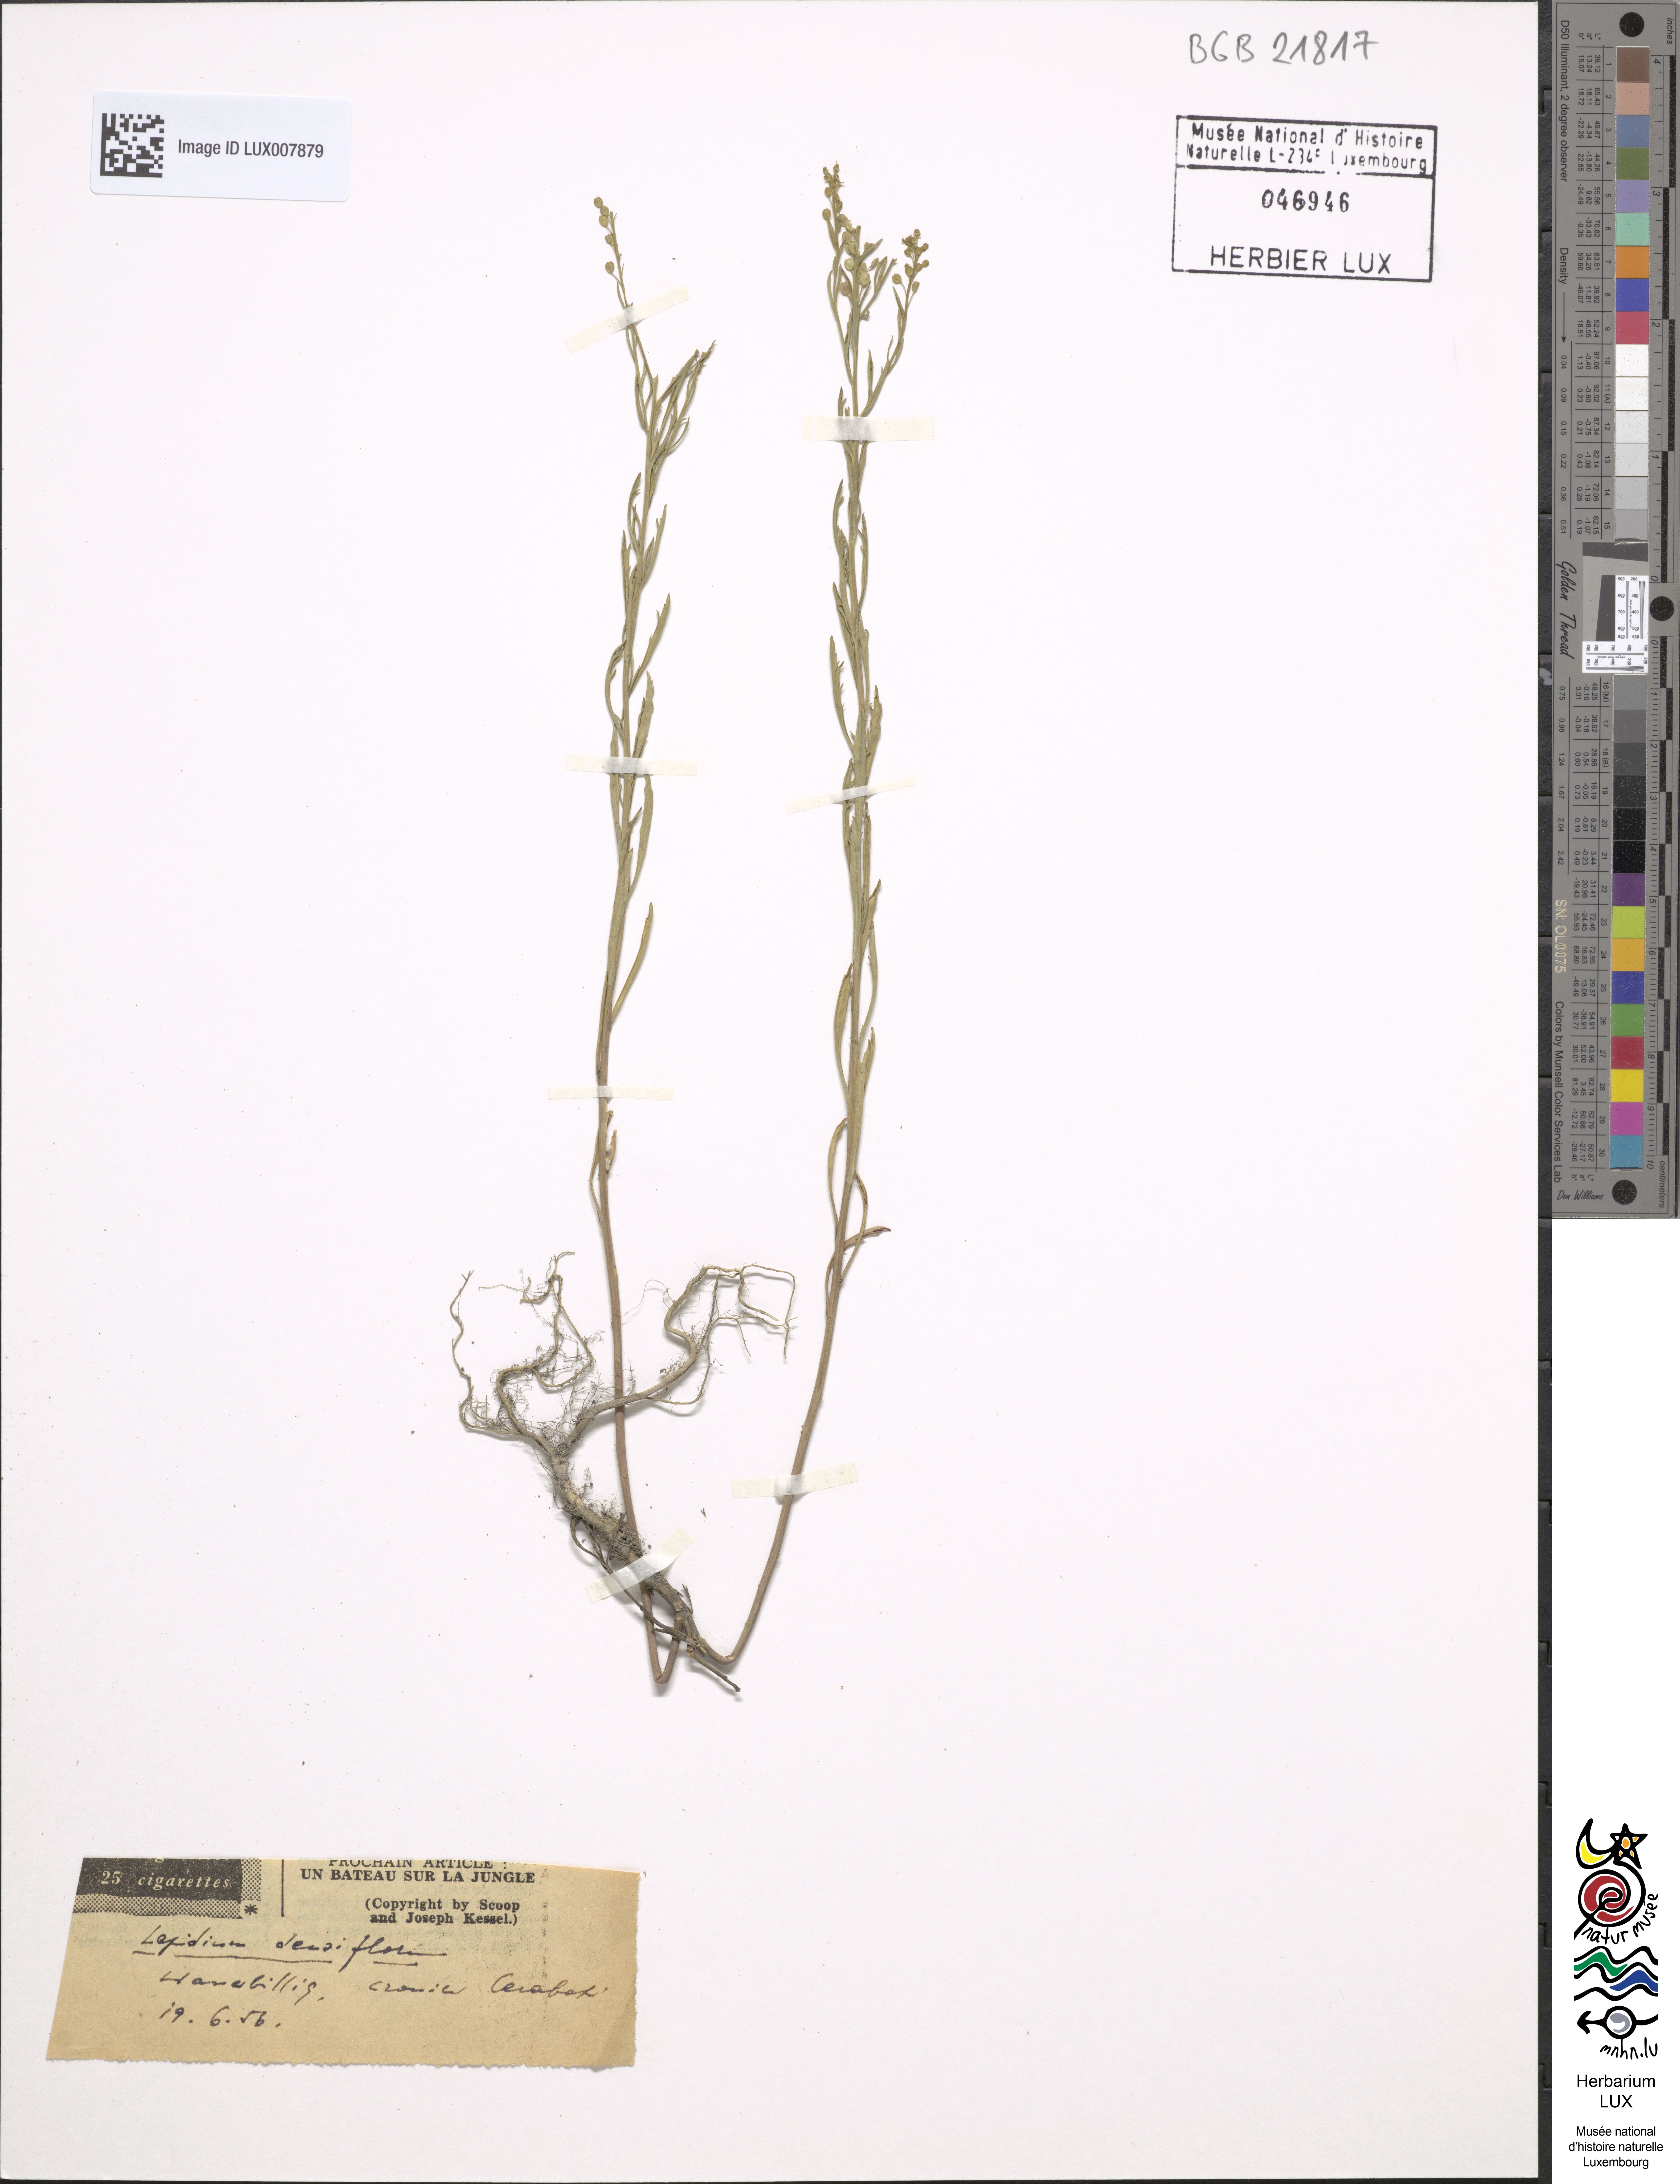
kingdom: Plantae
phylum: Tracheophyta
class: Magnoliopsida
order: Brassicales
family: Brassicaceae
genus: Lepidium
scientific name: Lepidium densiflorum
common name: Miner's pepperwort
